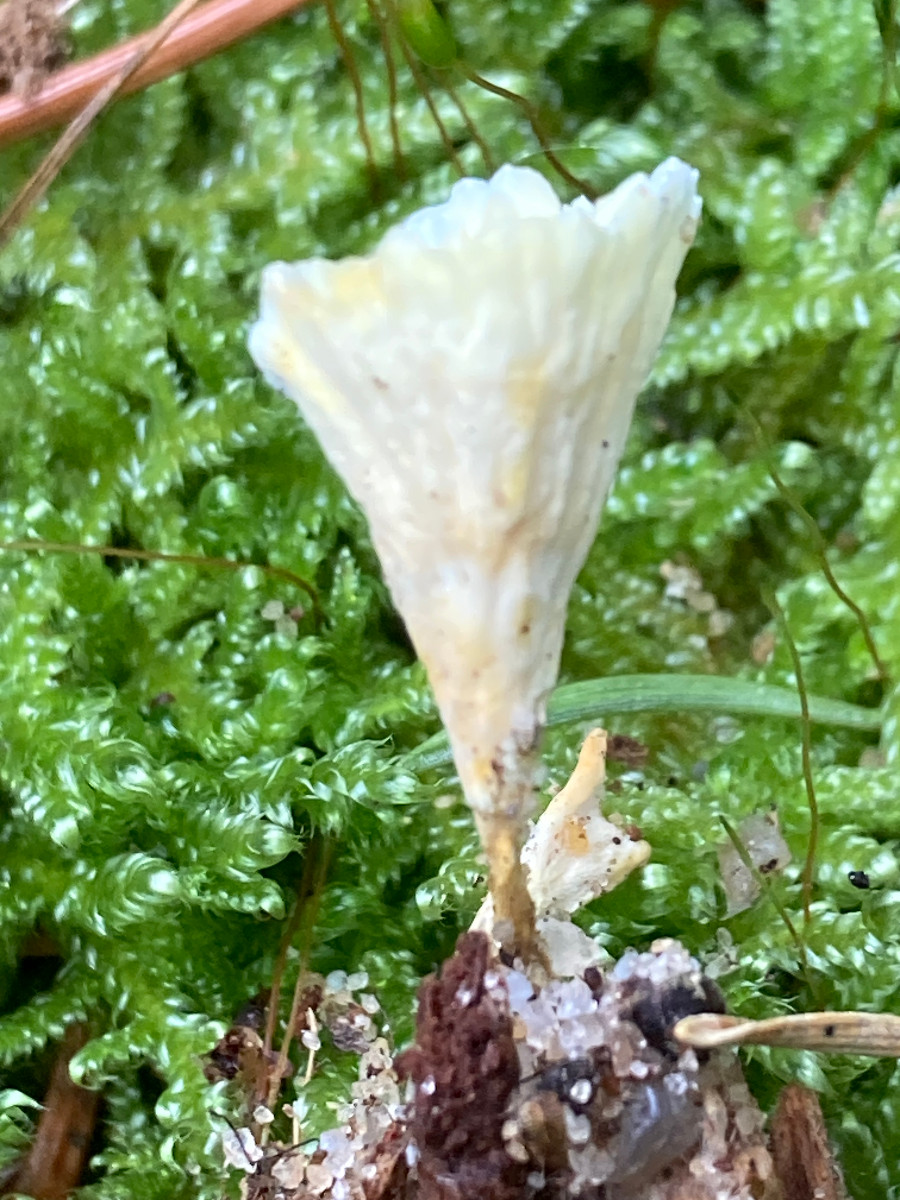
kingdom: Fungi
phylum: Basidiomycota
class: Agaricomycetes
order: Stereopsidales
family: Stereopsidaceae
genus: Stereopsis
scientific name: Stereopsis vitellina
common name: stilklædersvamp
